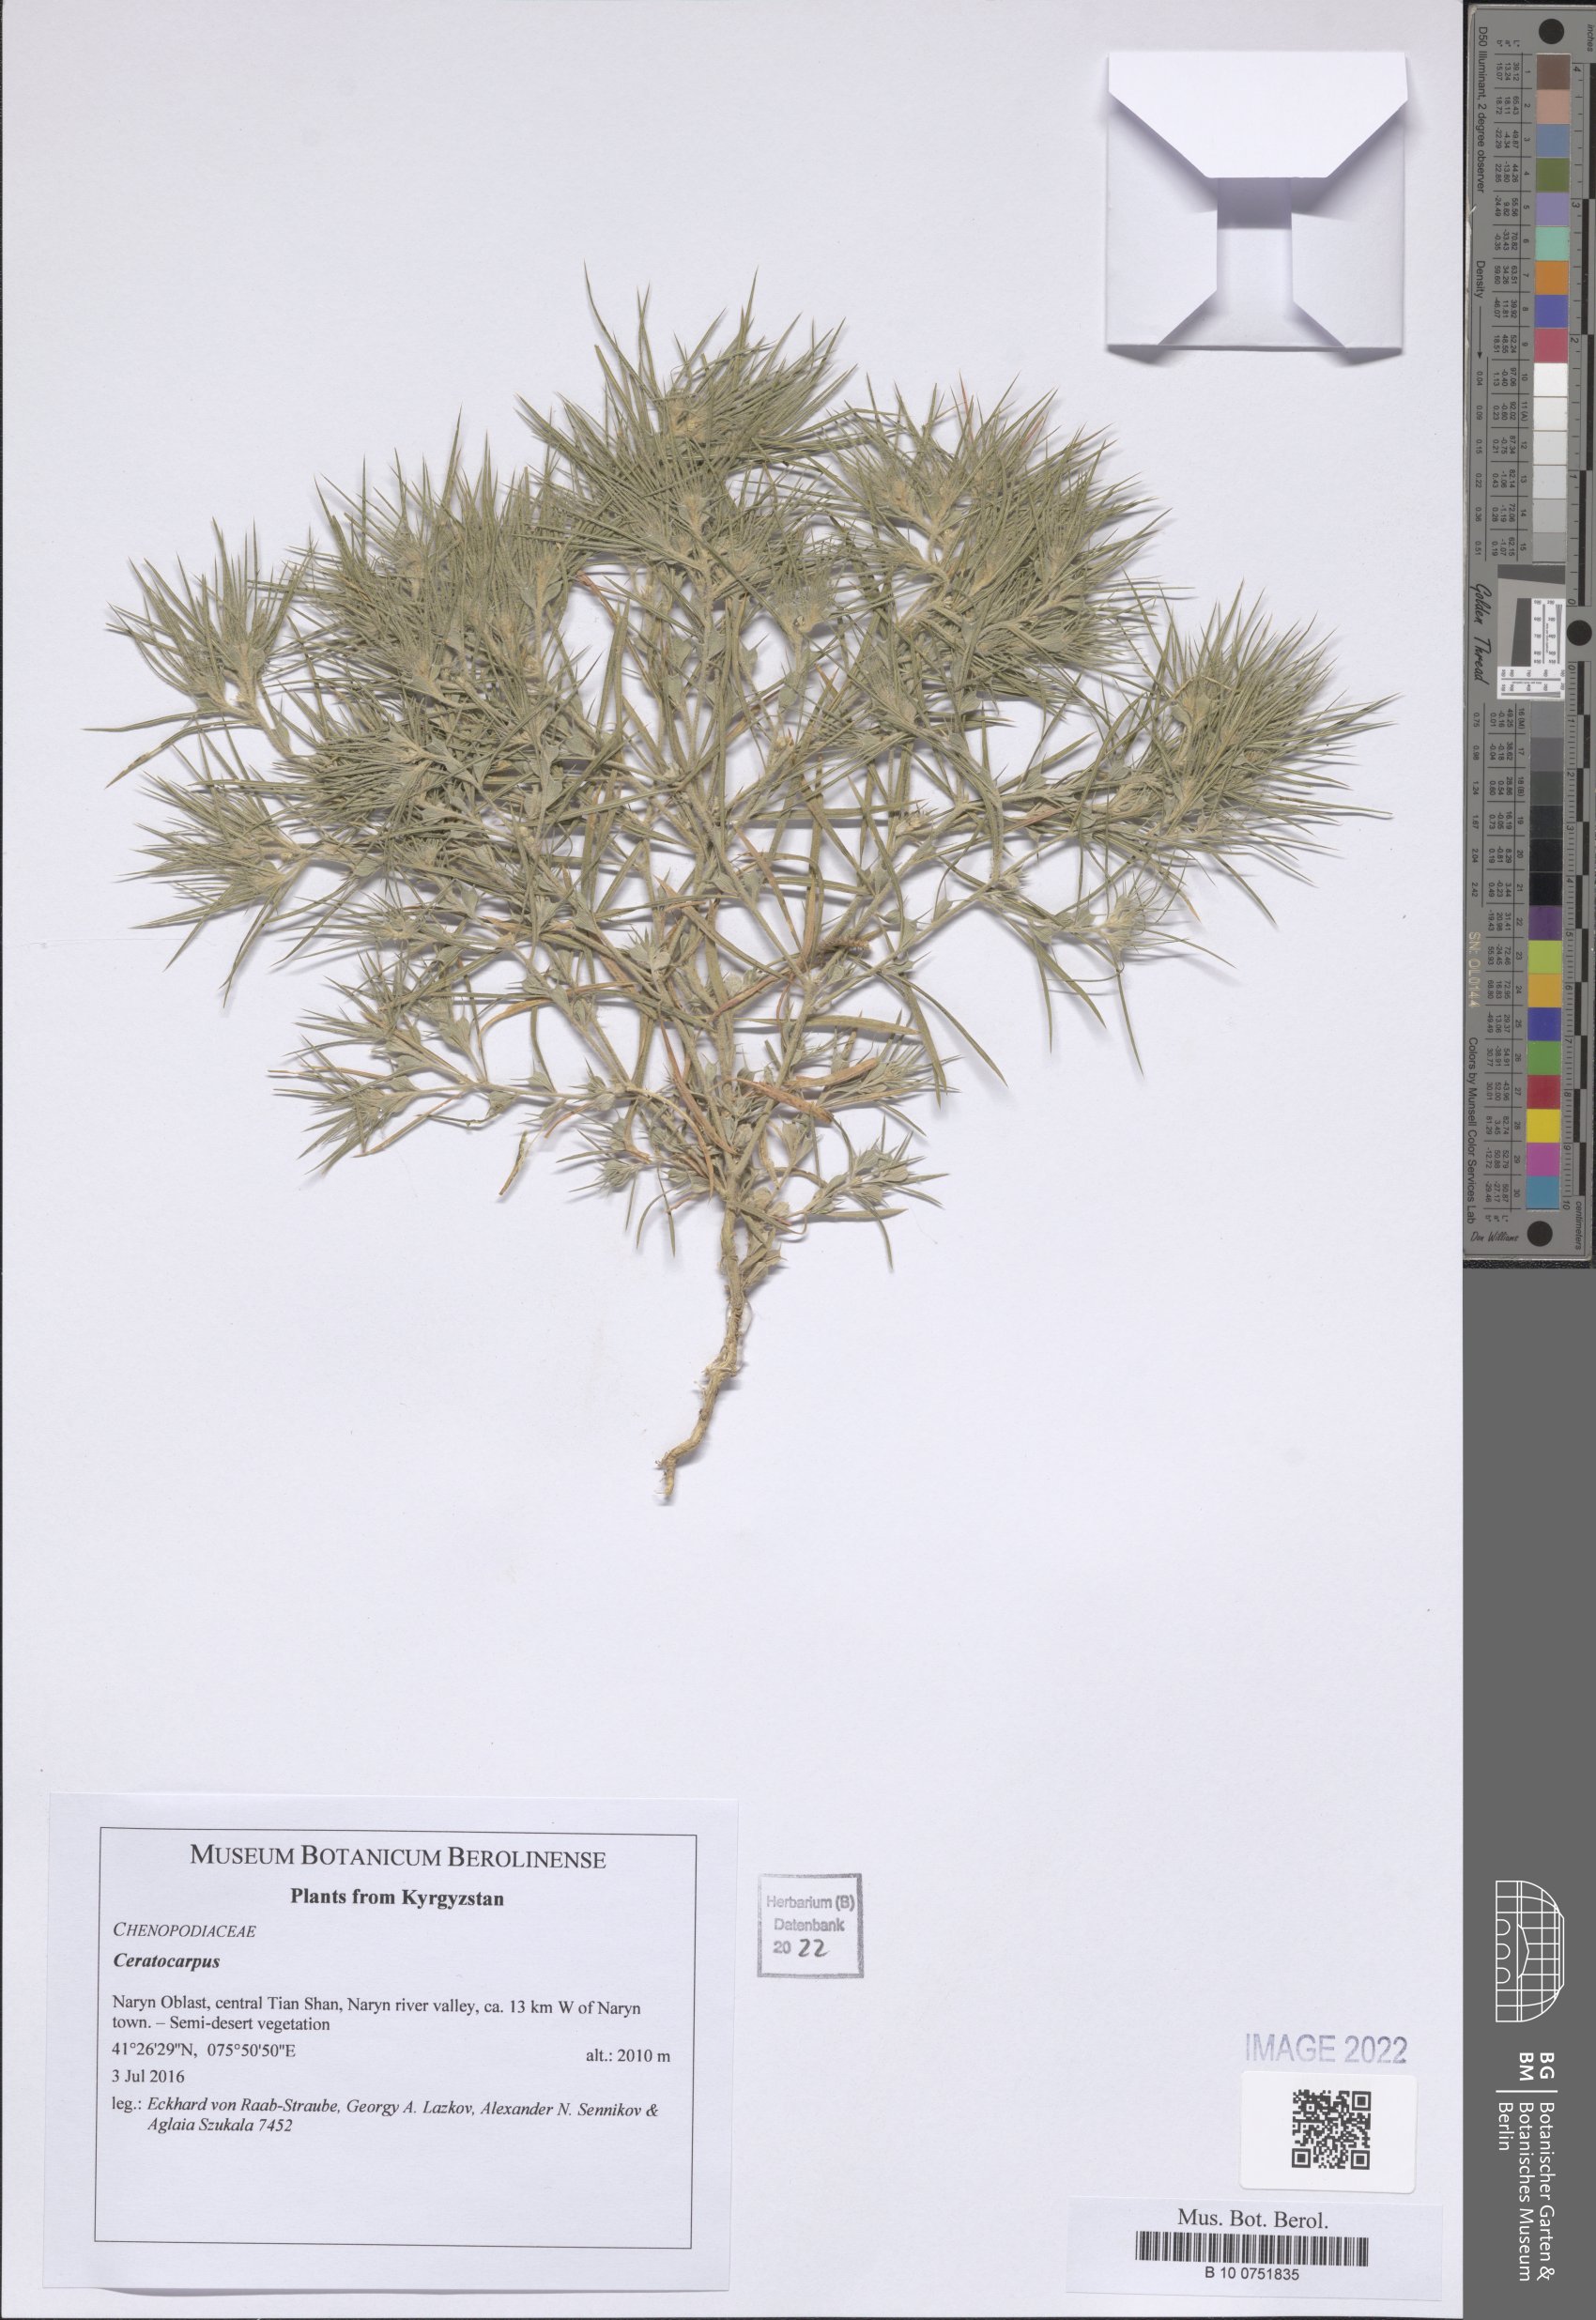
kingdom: Plantae
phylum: Tracheophyta
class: Magnoliopsida
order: Caryophyllales
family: Amaranthaceae
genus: Ceratocarpus
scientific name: Ceratocarpus
